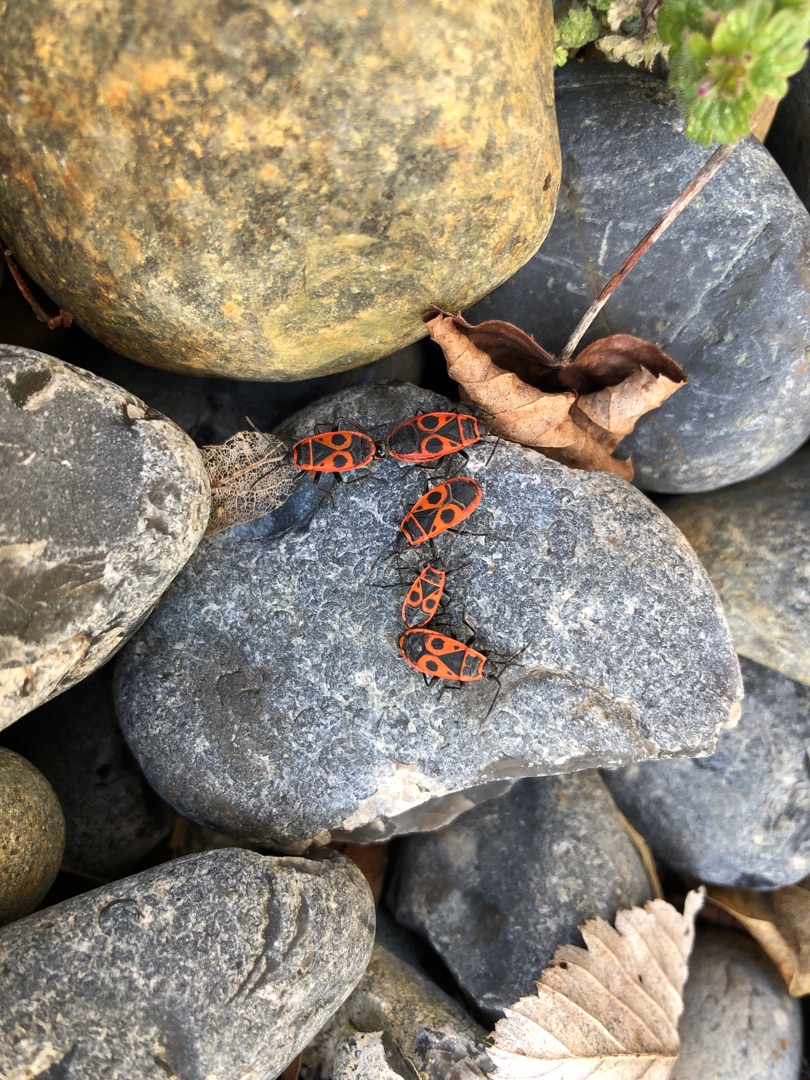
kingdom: Animalia
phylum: Arthropoda
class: Insecta
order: Hemiptera
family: Pyrrhocoridae
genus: Pyrrhocoris
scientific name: Pyrrhocoris apterus
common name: Ildtæge
